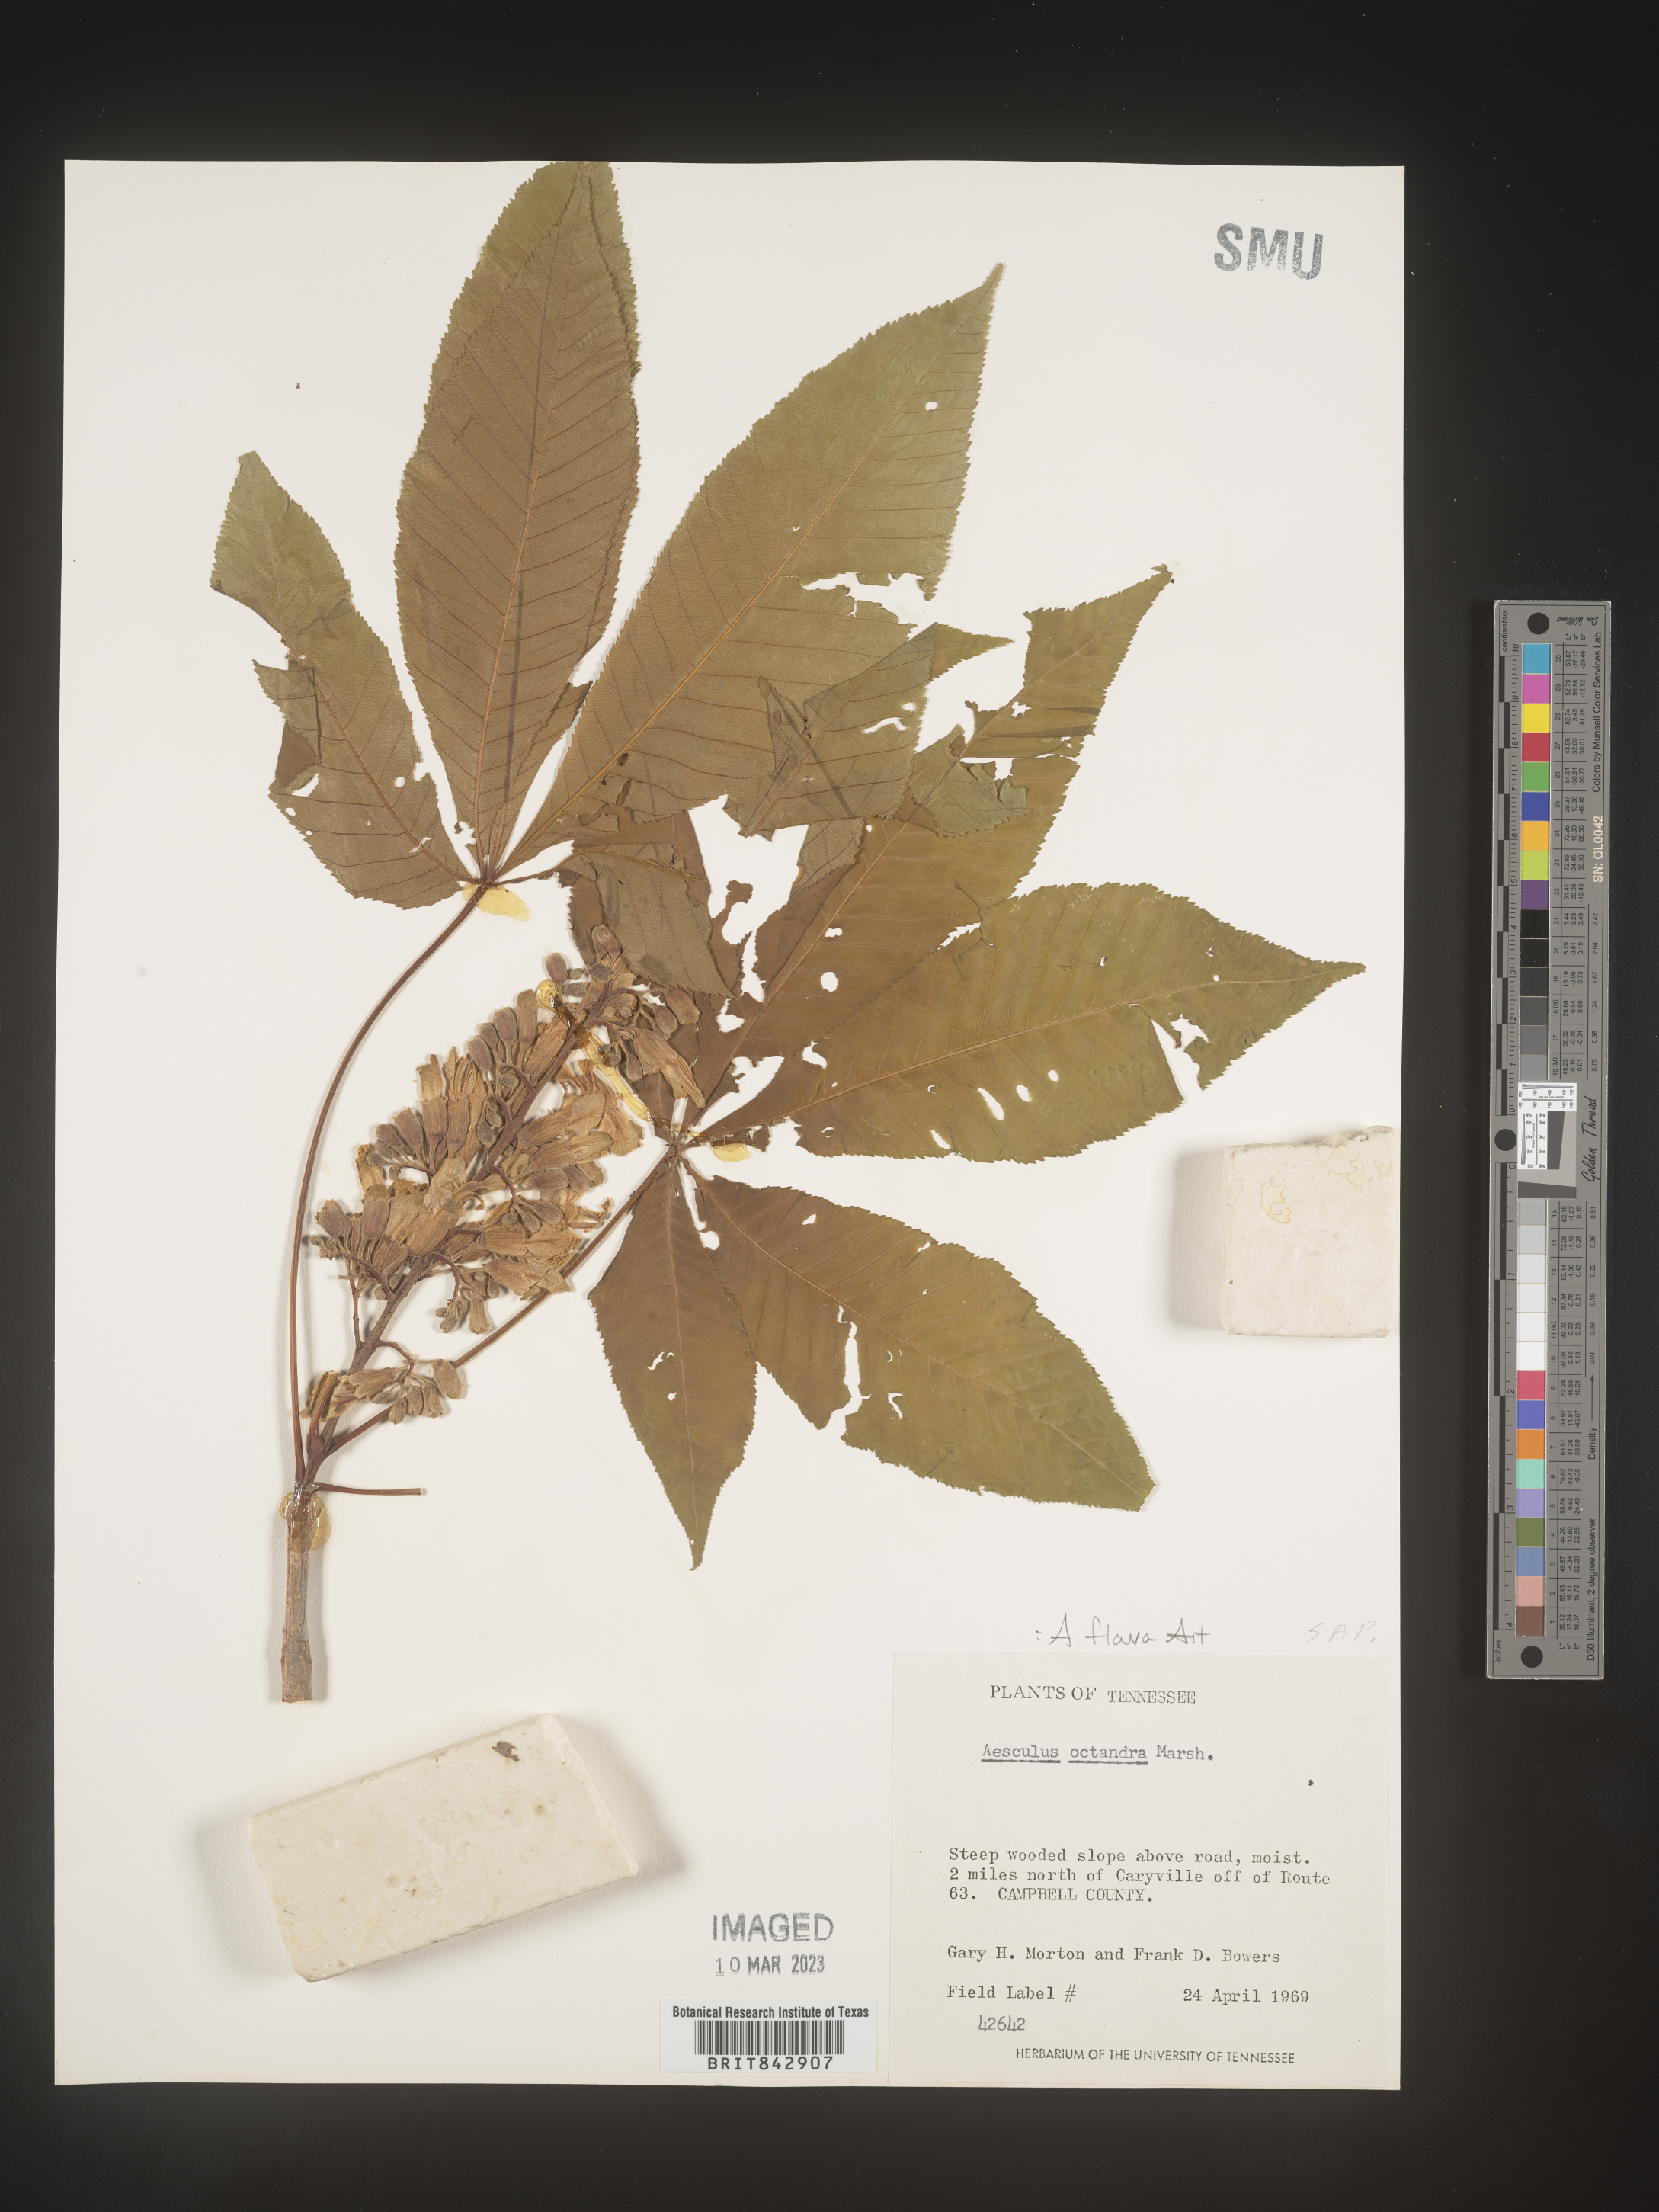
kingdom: Plantae
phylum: Tracheophyta
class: Magnoliopsida
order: Sapindales
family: Sapindaceae
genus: Aesculus
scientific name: Aesculus flava
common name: Yellow buckeye
